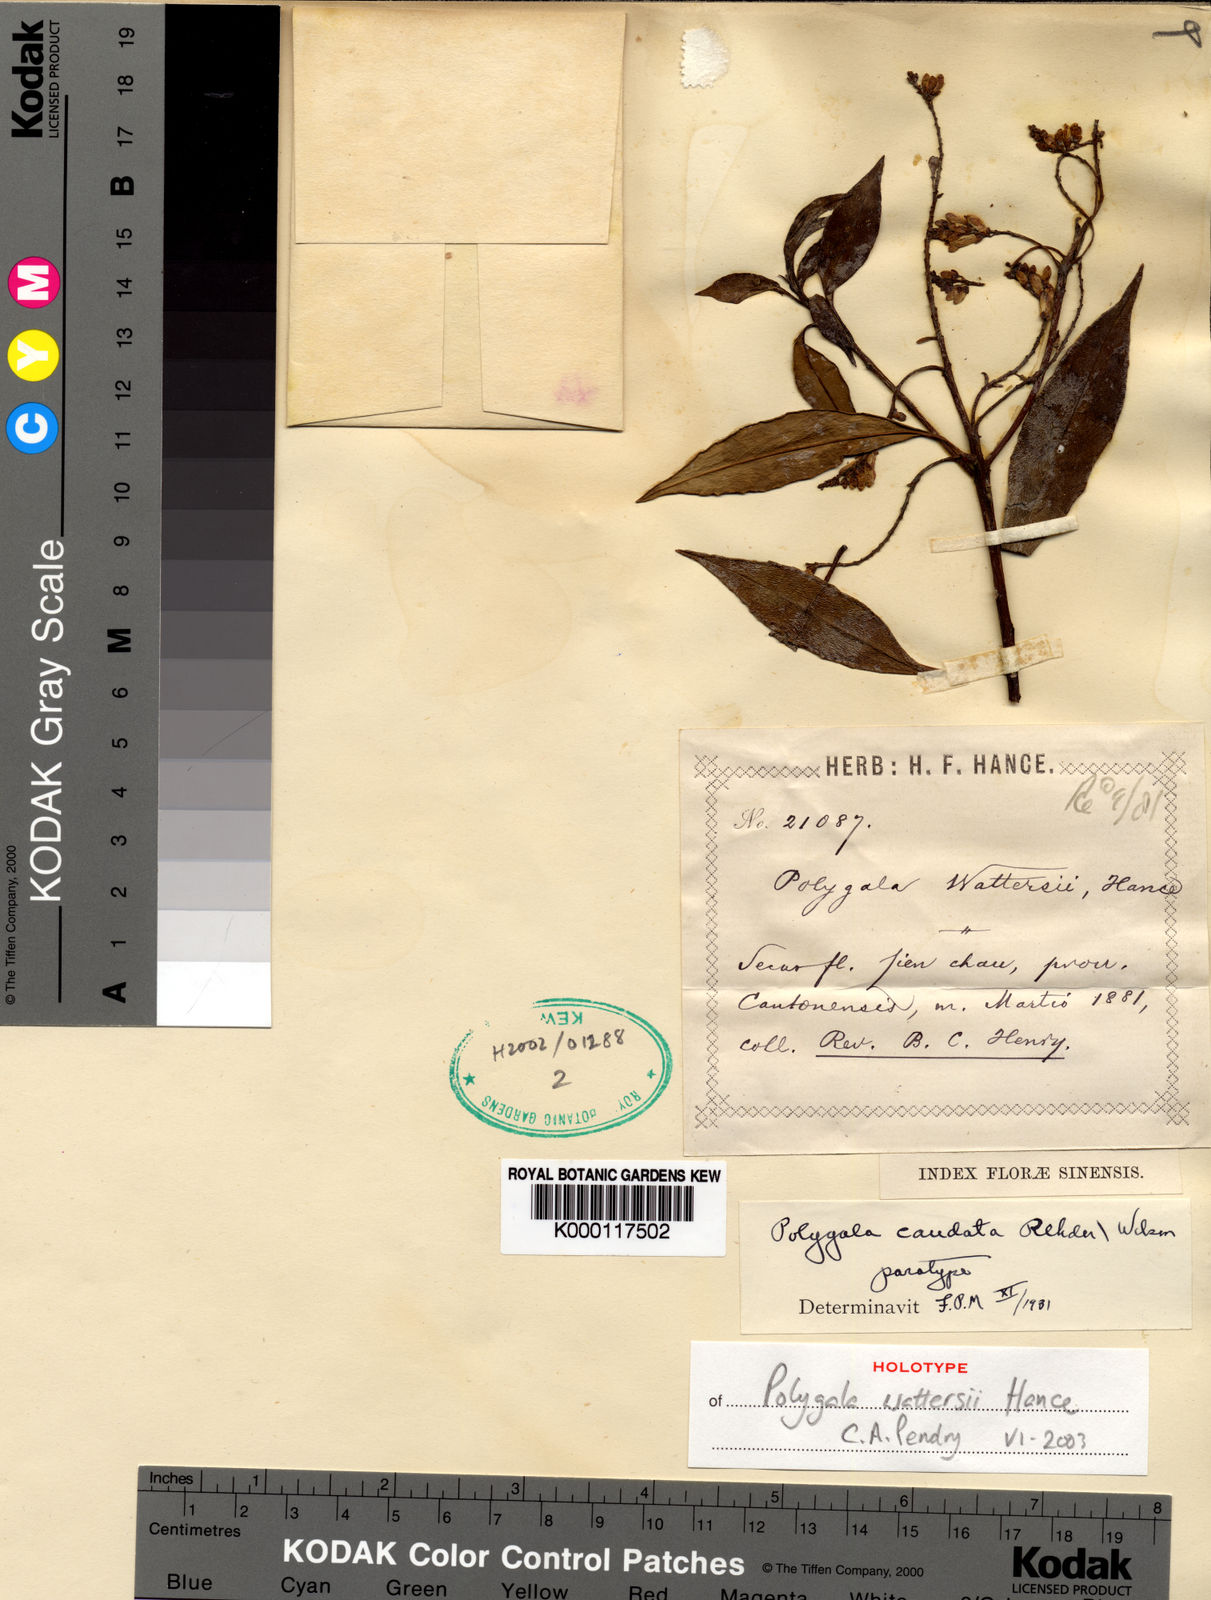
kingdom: Plantae
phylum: Tracheophyta
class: Magnoliopsida
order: Fabales
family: Polygalaceae
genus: Polygala
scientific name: Polygala caudata
